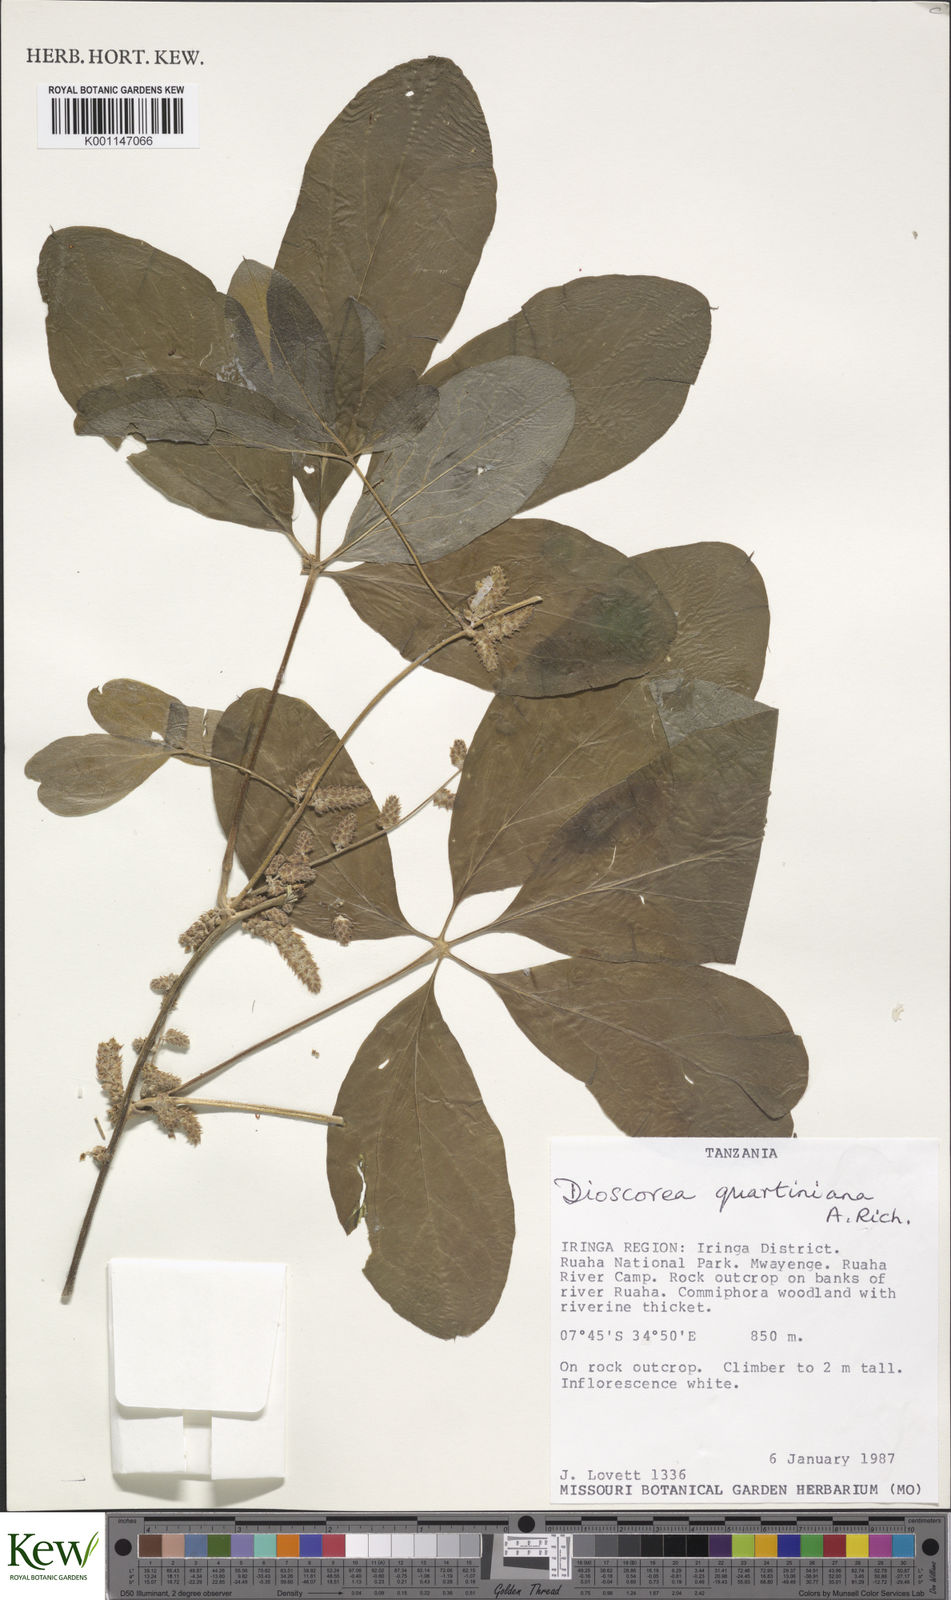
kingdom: Plantae
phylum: Tracheophyta
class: Liliopsida
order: Dioscoreales
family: Dioscoreaceae
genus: Dioscorea
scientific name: Dioscorea quartiniana
